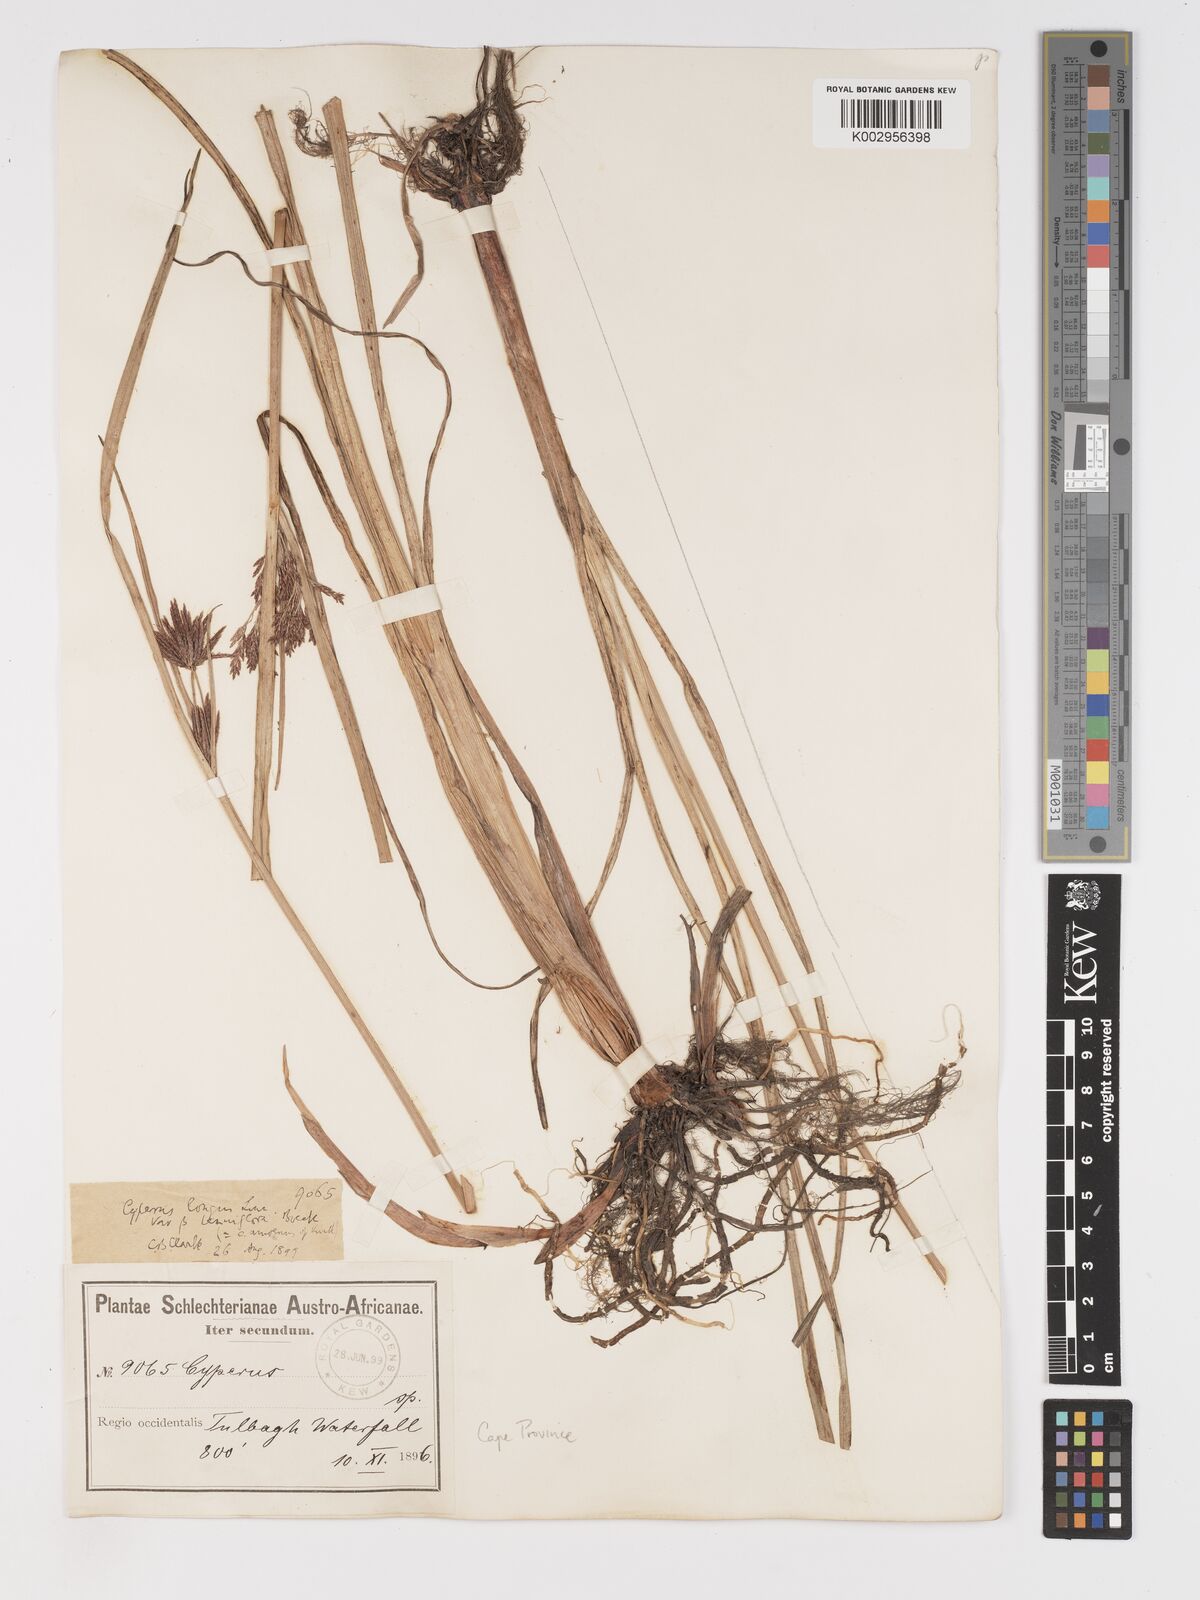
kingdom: Plantae
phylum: Tracheophyta
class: Liliopsida
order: Poales
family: Cyperaceae
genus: Cyperus
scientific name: Cyperus longus
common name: Galingale
